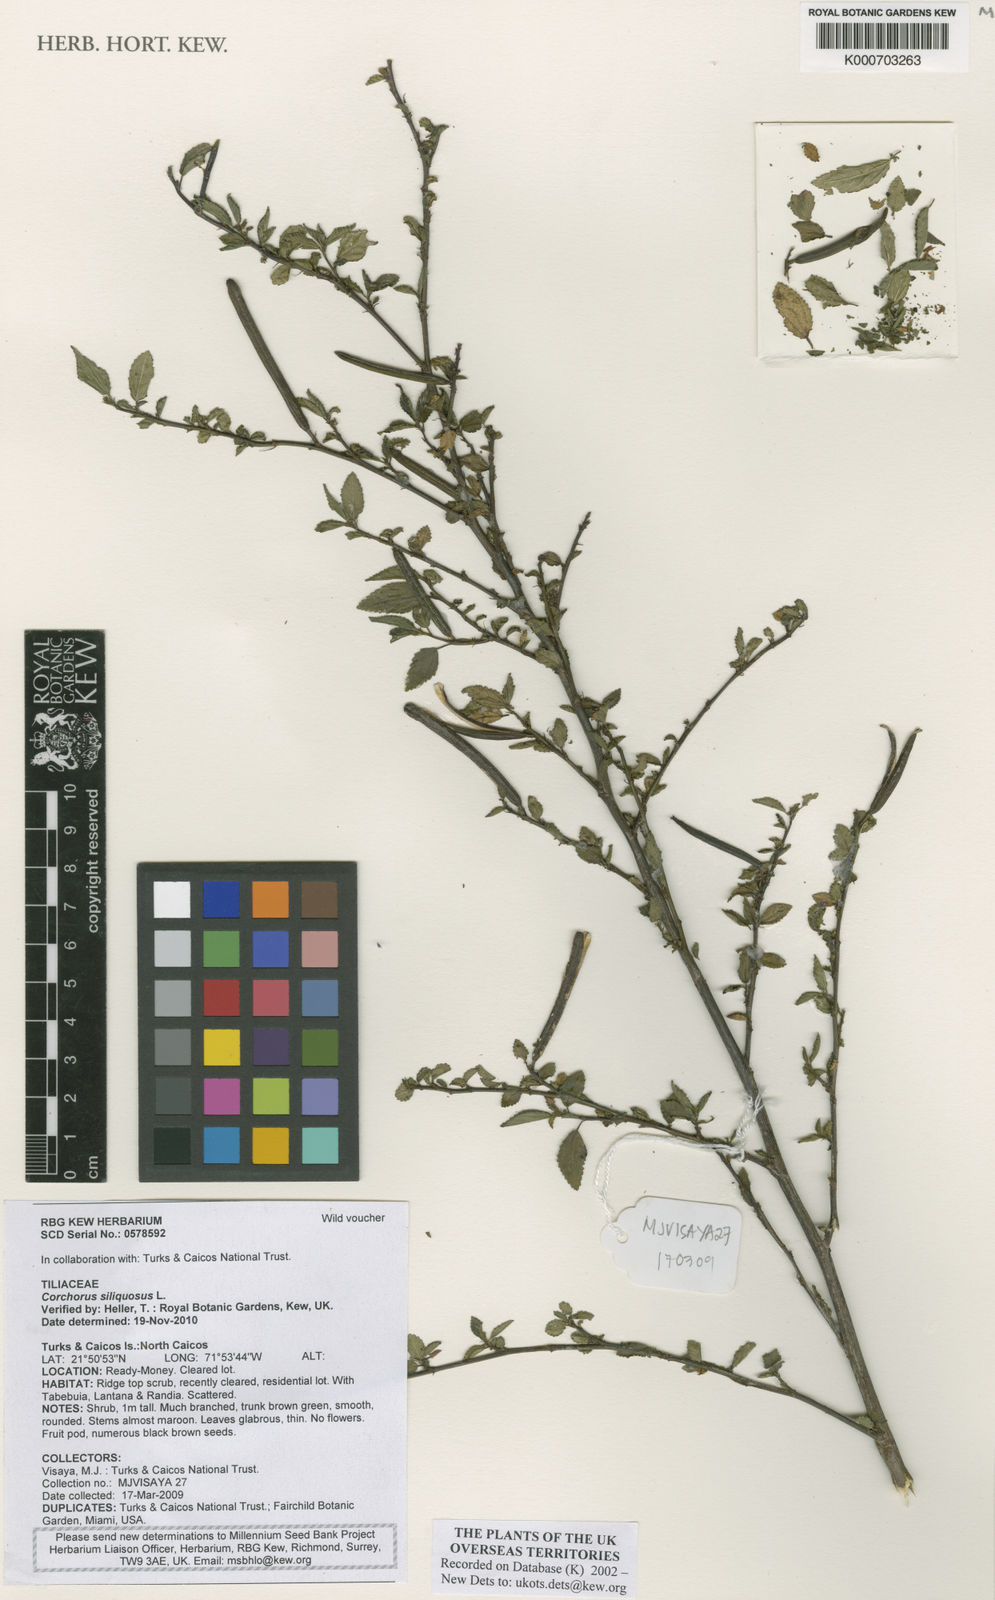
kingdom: Plantae
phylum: Tracheophyta
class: Magnoliopsida
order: Malvales
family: Malvaceae
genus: Corchorus
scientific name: Corchorus siliquosus
